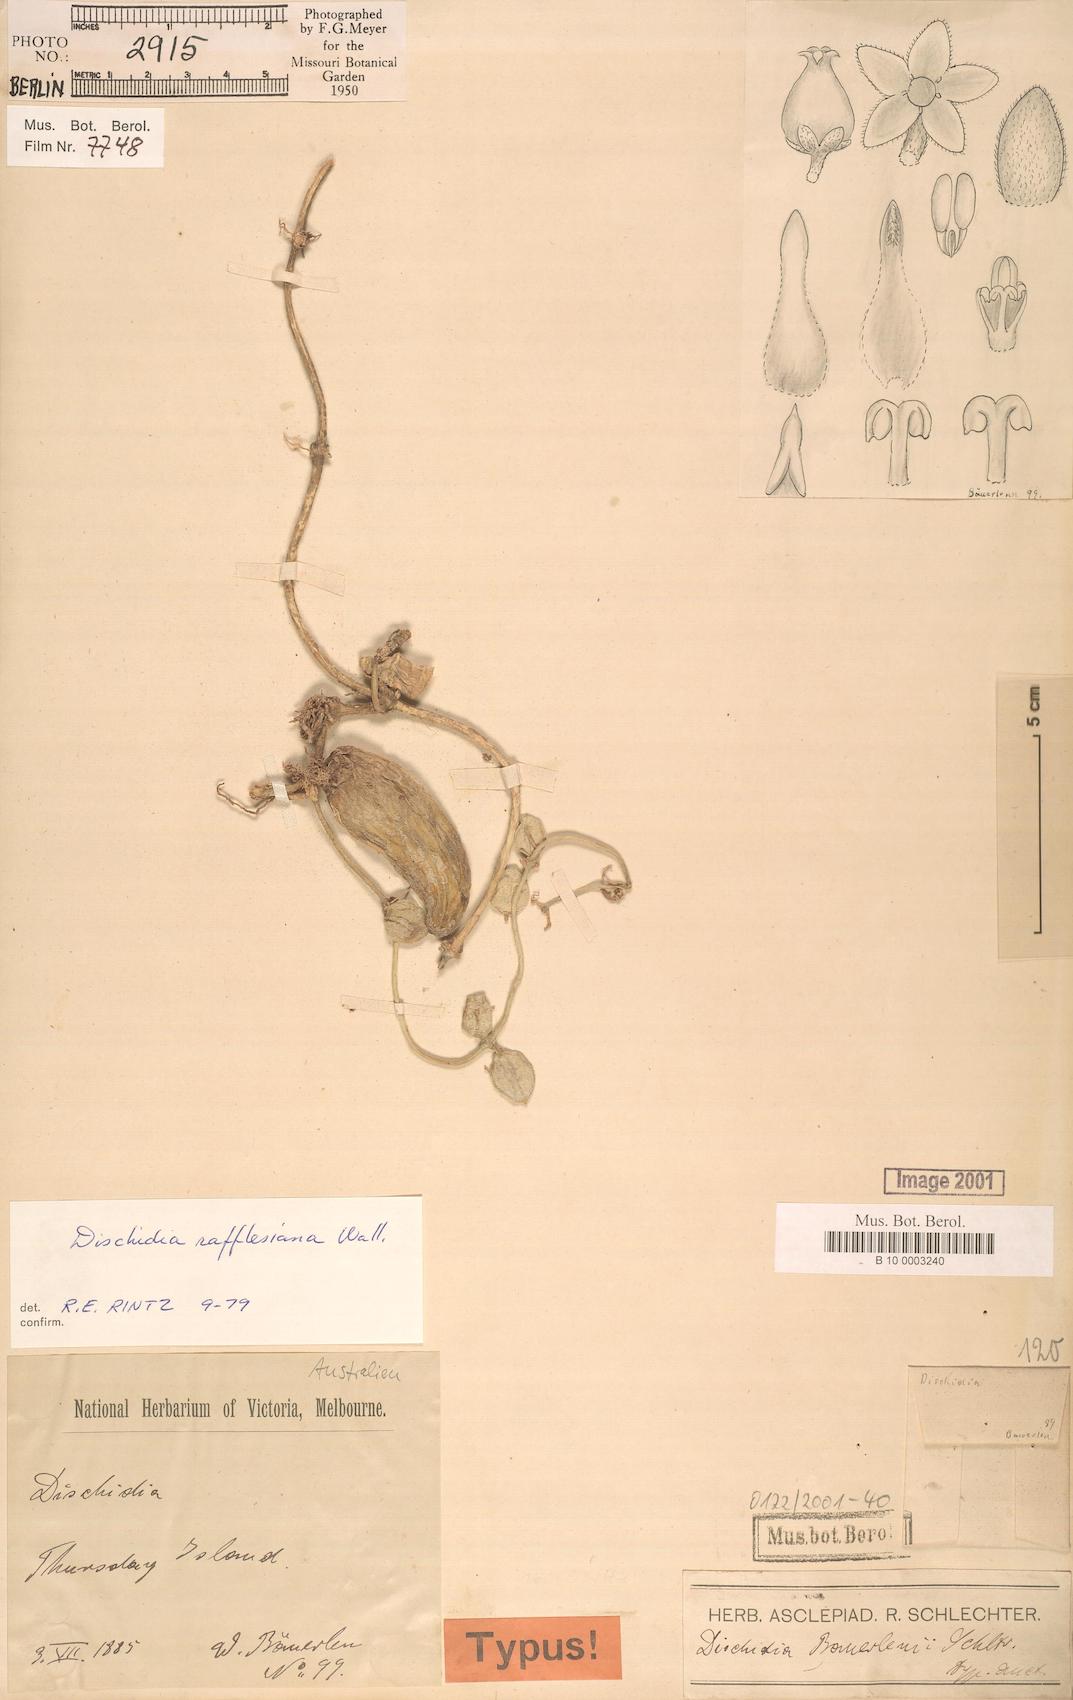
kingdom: Plantae
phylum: Tracheophyta
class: Magnoliopsida
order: Gentianales
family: Apocynaceae
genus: Dischidia
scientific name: Dischidia major
